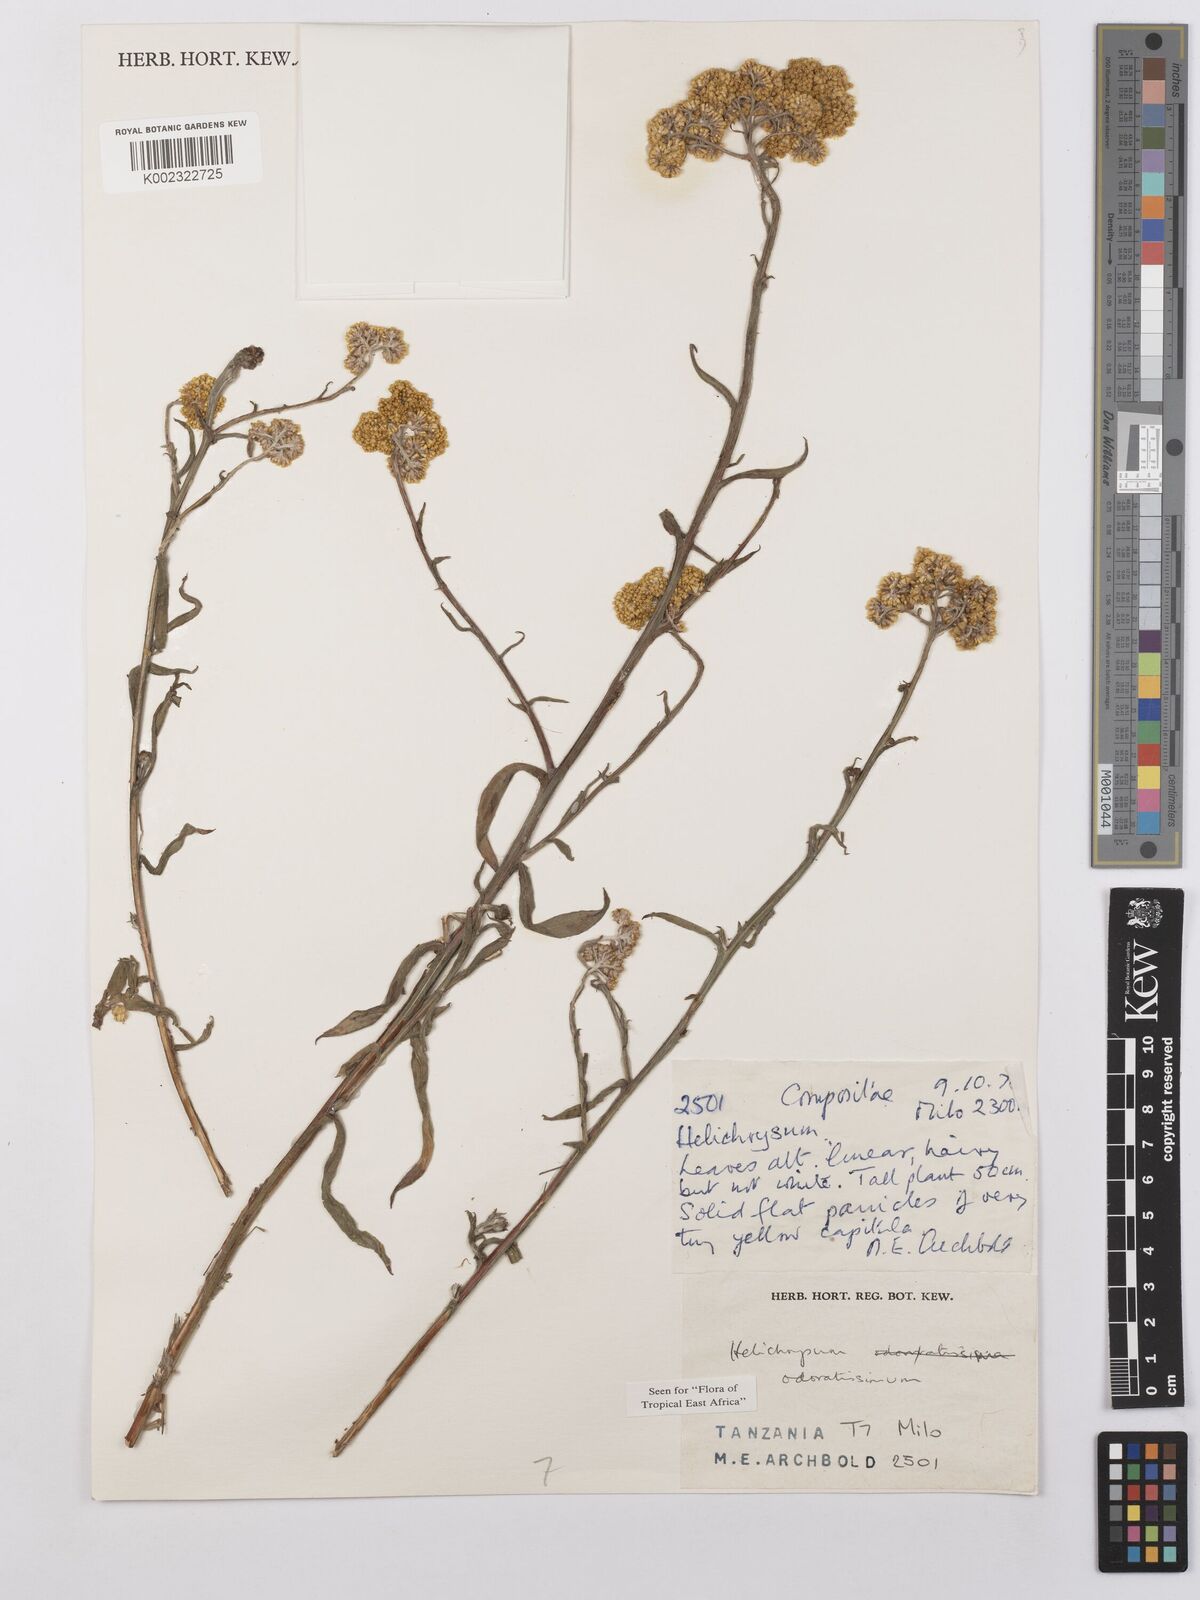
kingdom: Plantae
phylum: Tracheophyta
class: Magnoliopsida
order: Asterales
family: Asteraceae
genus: Helichrysum
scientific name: Helichrysum odoratissimum
